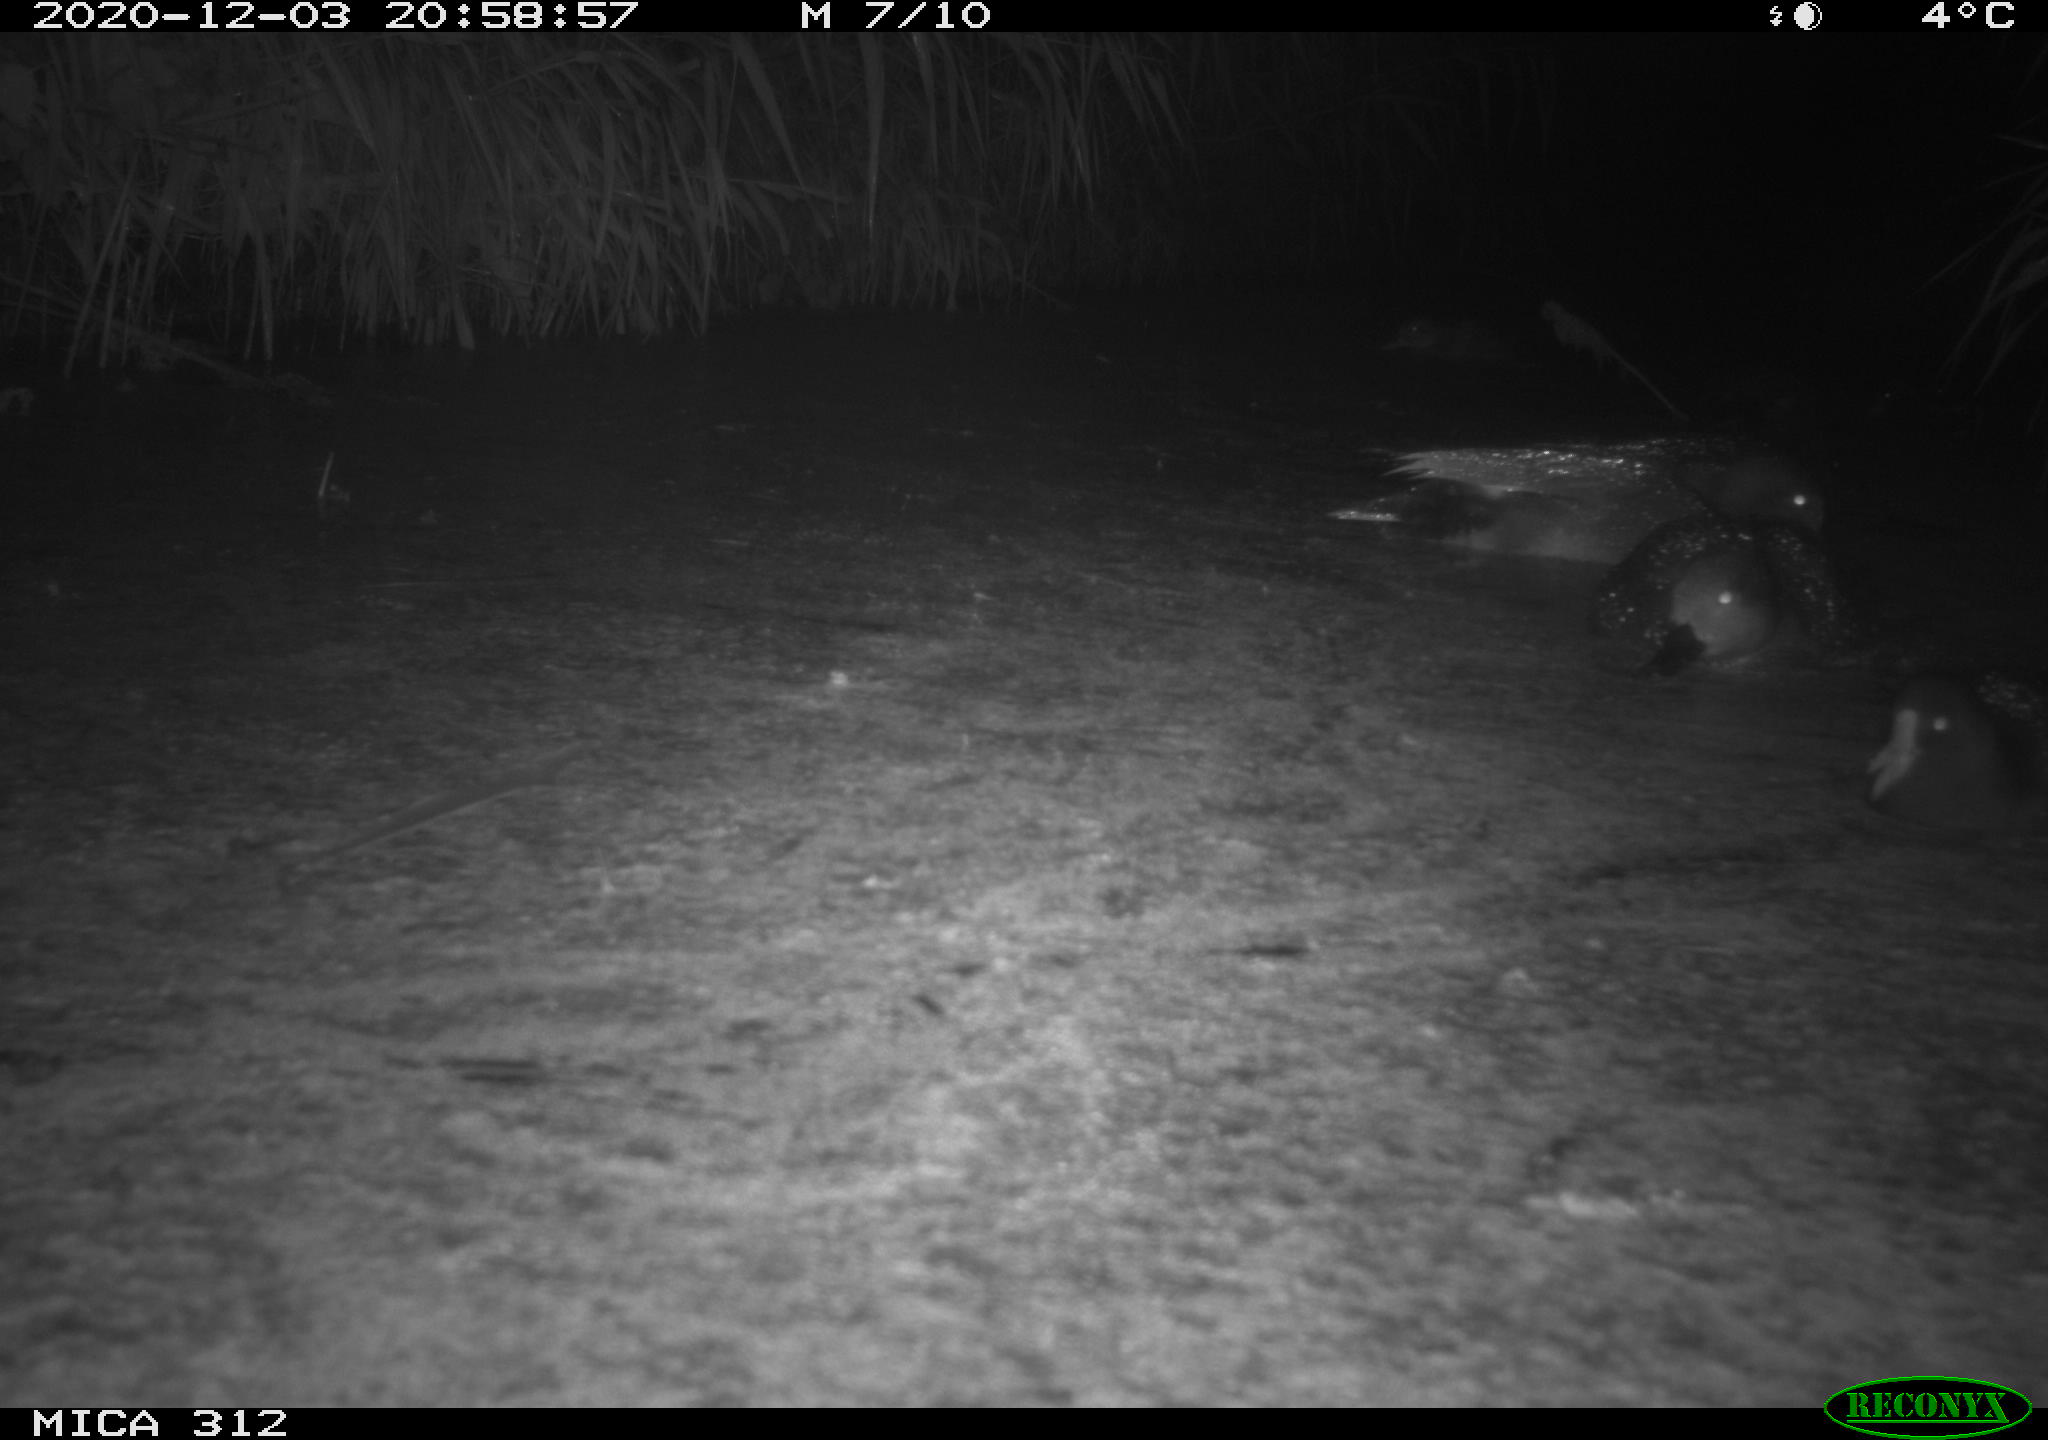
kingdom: Animalia
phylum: Chordata
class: Aves
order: Gruiformes
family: Rallidae
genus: Gallinula
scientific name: Gallinula chloropus
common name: Common moorhen
